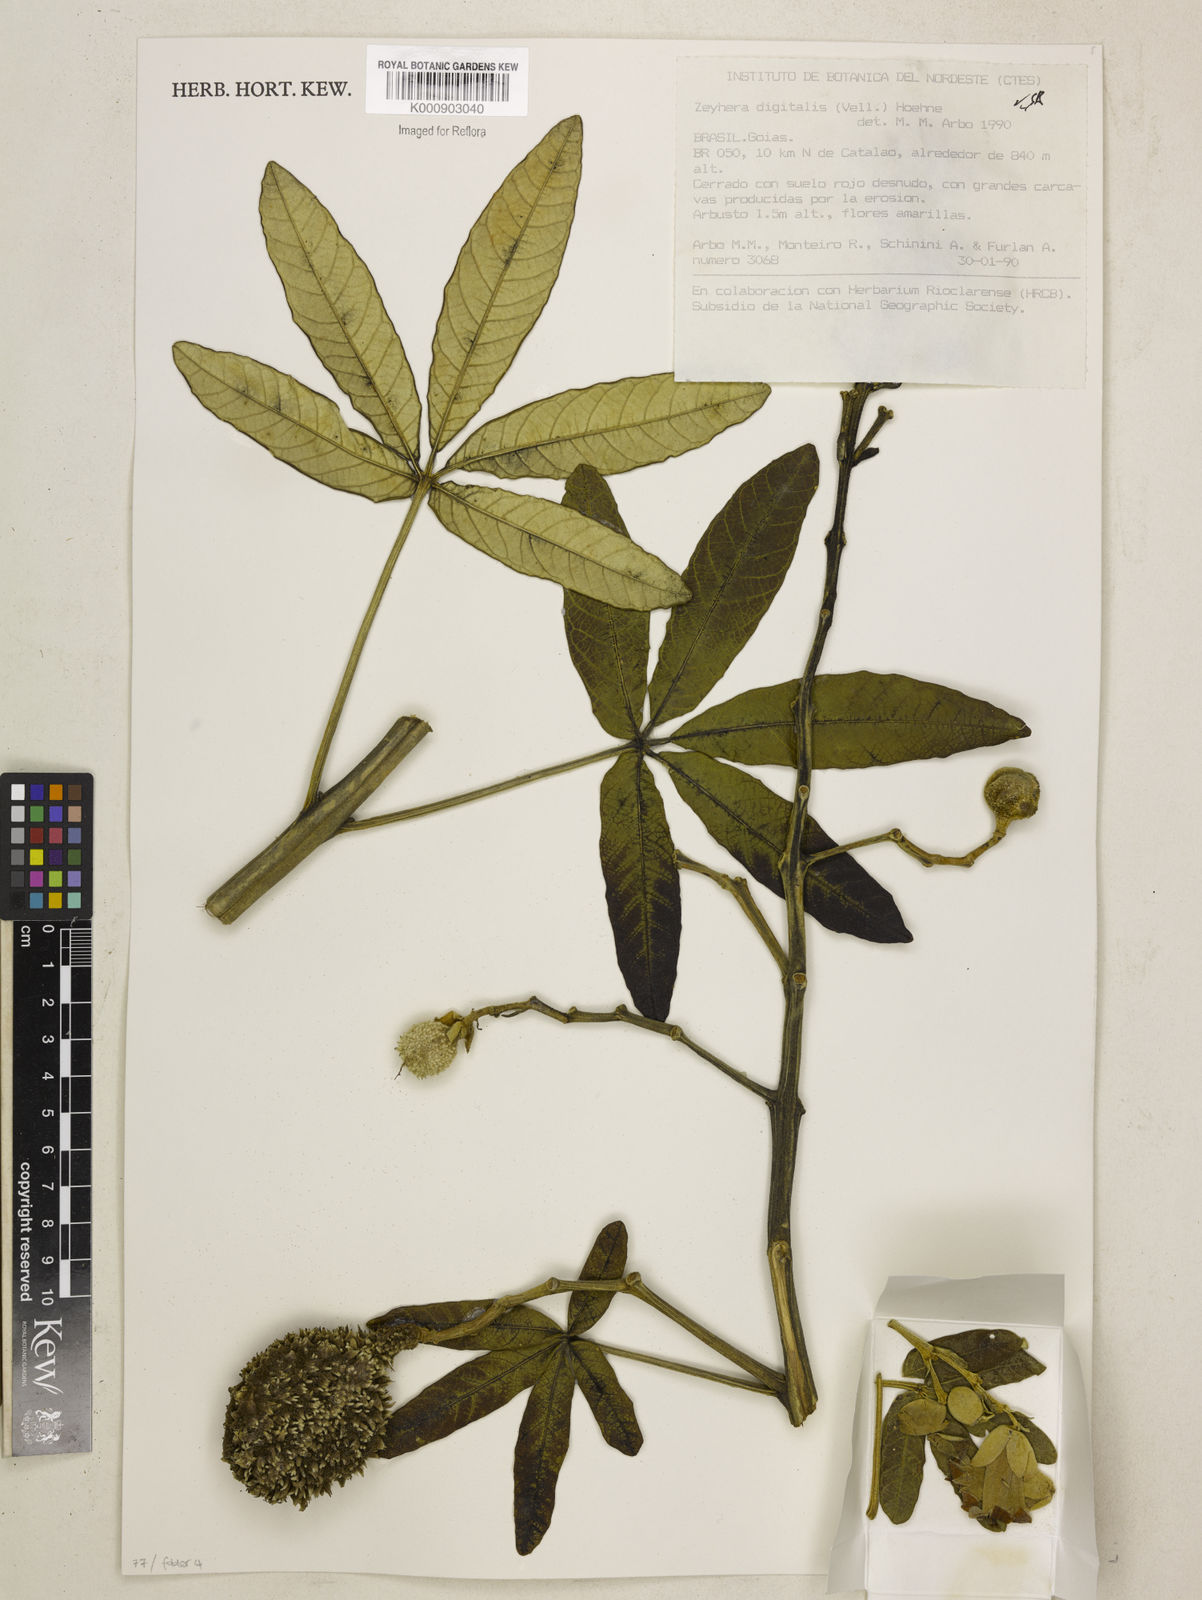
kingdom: Plantae
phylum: Tracheophyta
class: Magnoliopsida
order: Lamiales
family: Bignoniaceae
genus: Zeyheria
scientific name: Zeyheria
